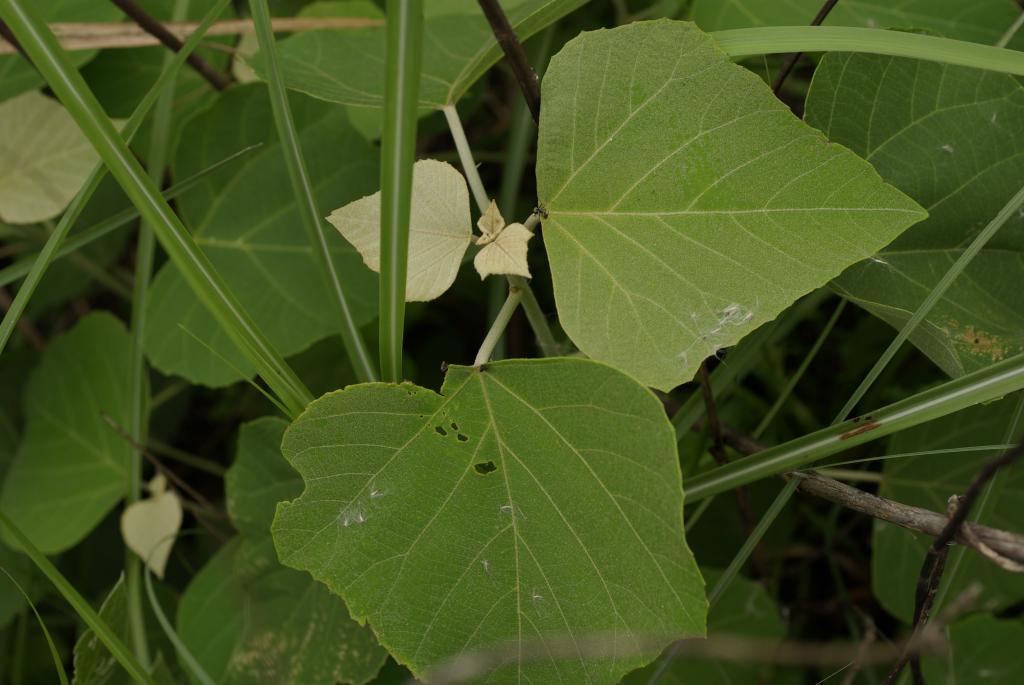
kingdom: Plantae
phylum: Tracheophyta
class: Magnoliopsida
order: Malpighiales
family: Euphorbiaceae
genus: Mallotus
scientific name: Mallotus paniculatus
